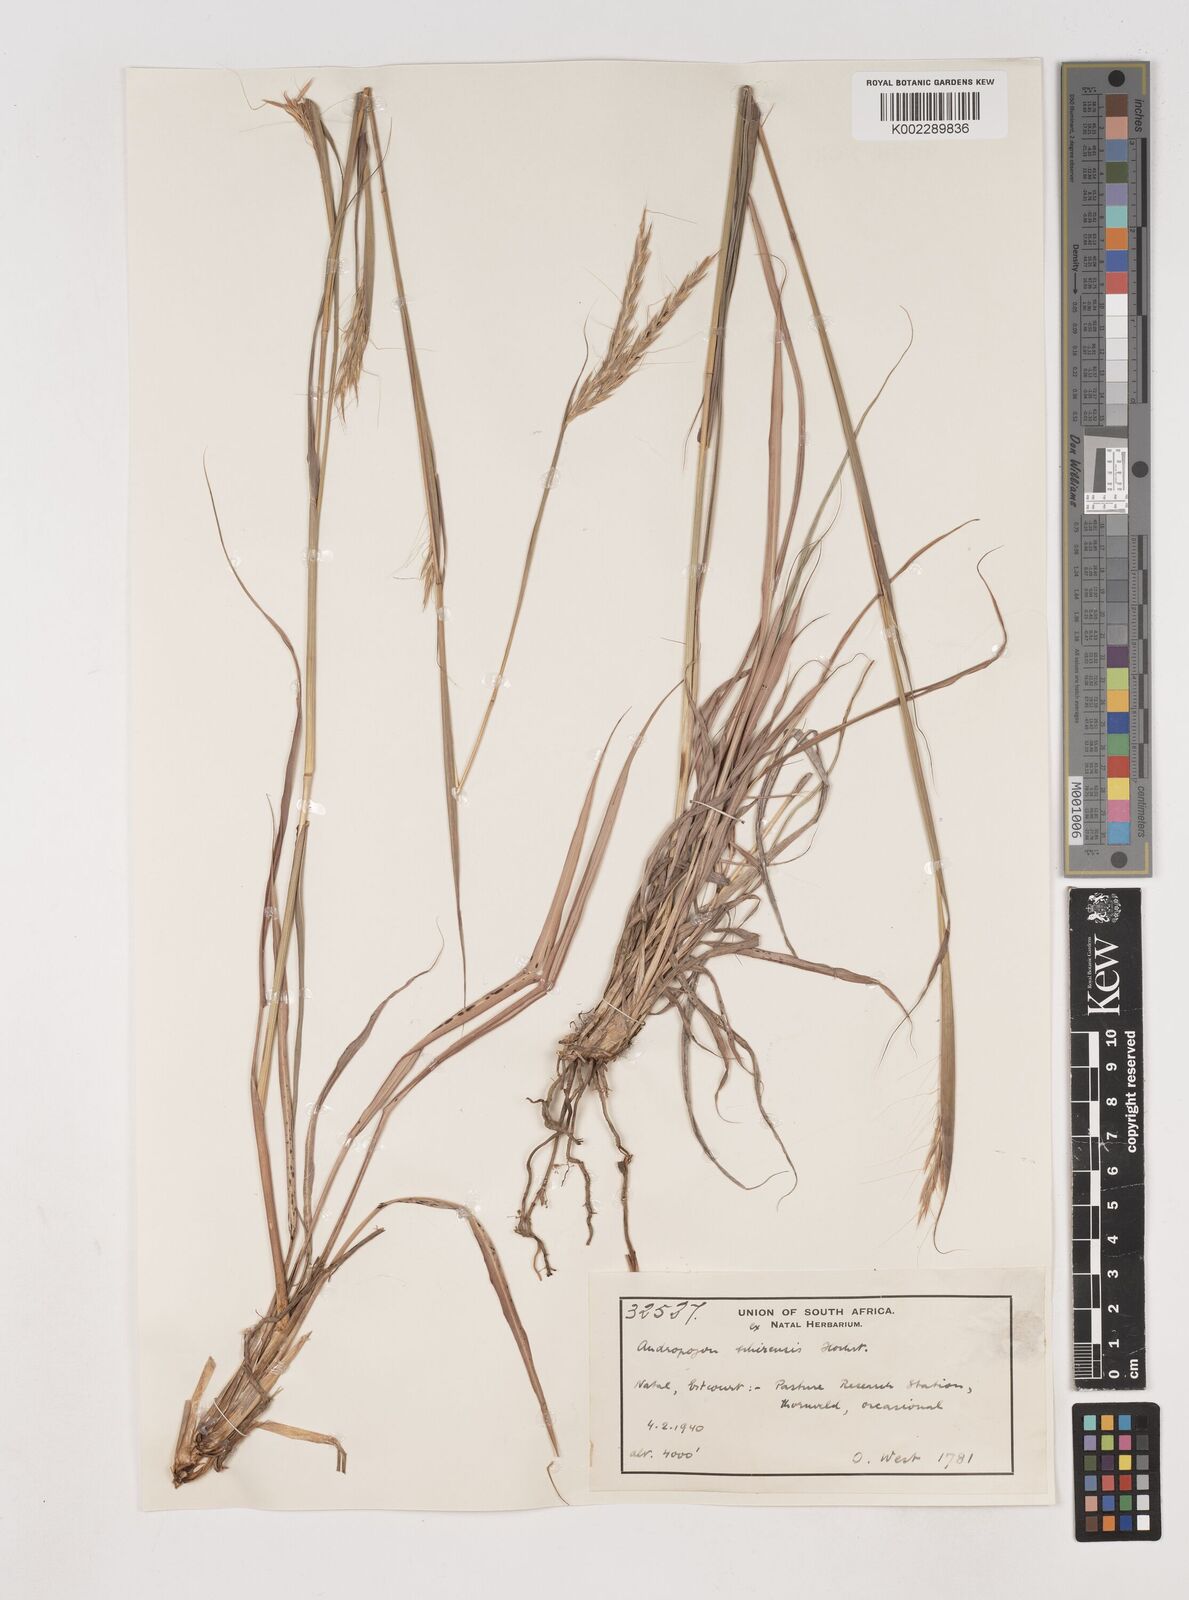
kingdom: Plantae
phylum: Tracheophyta
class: Liliopsida
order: Poales
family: Poaceae
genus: Diheteropogon
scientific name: Diheteropogon amplectens
